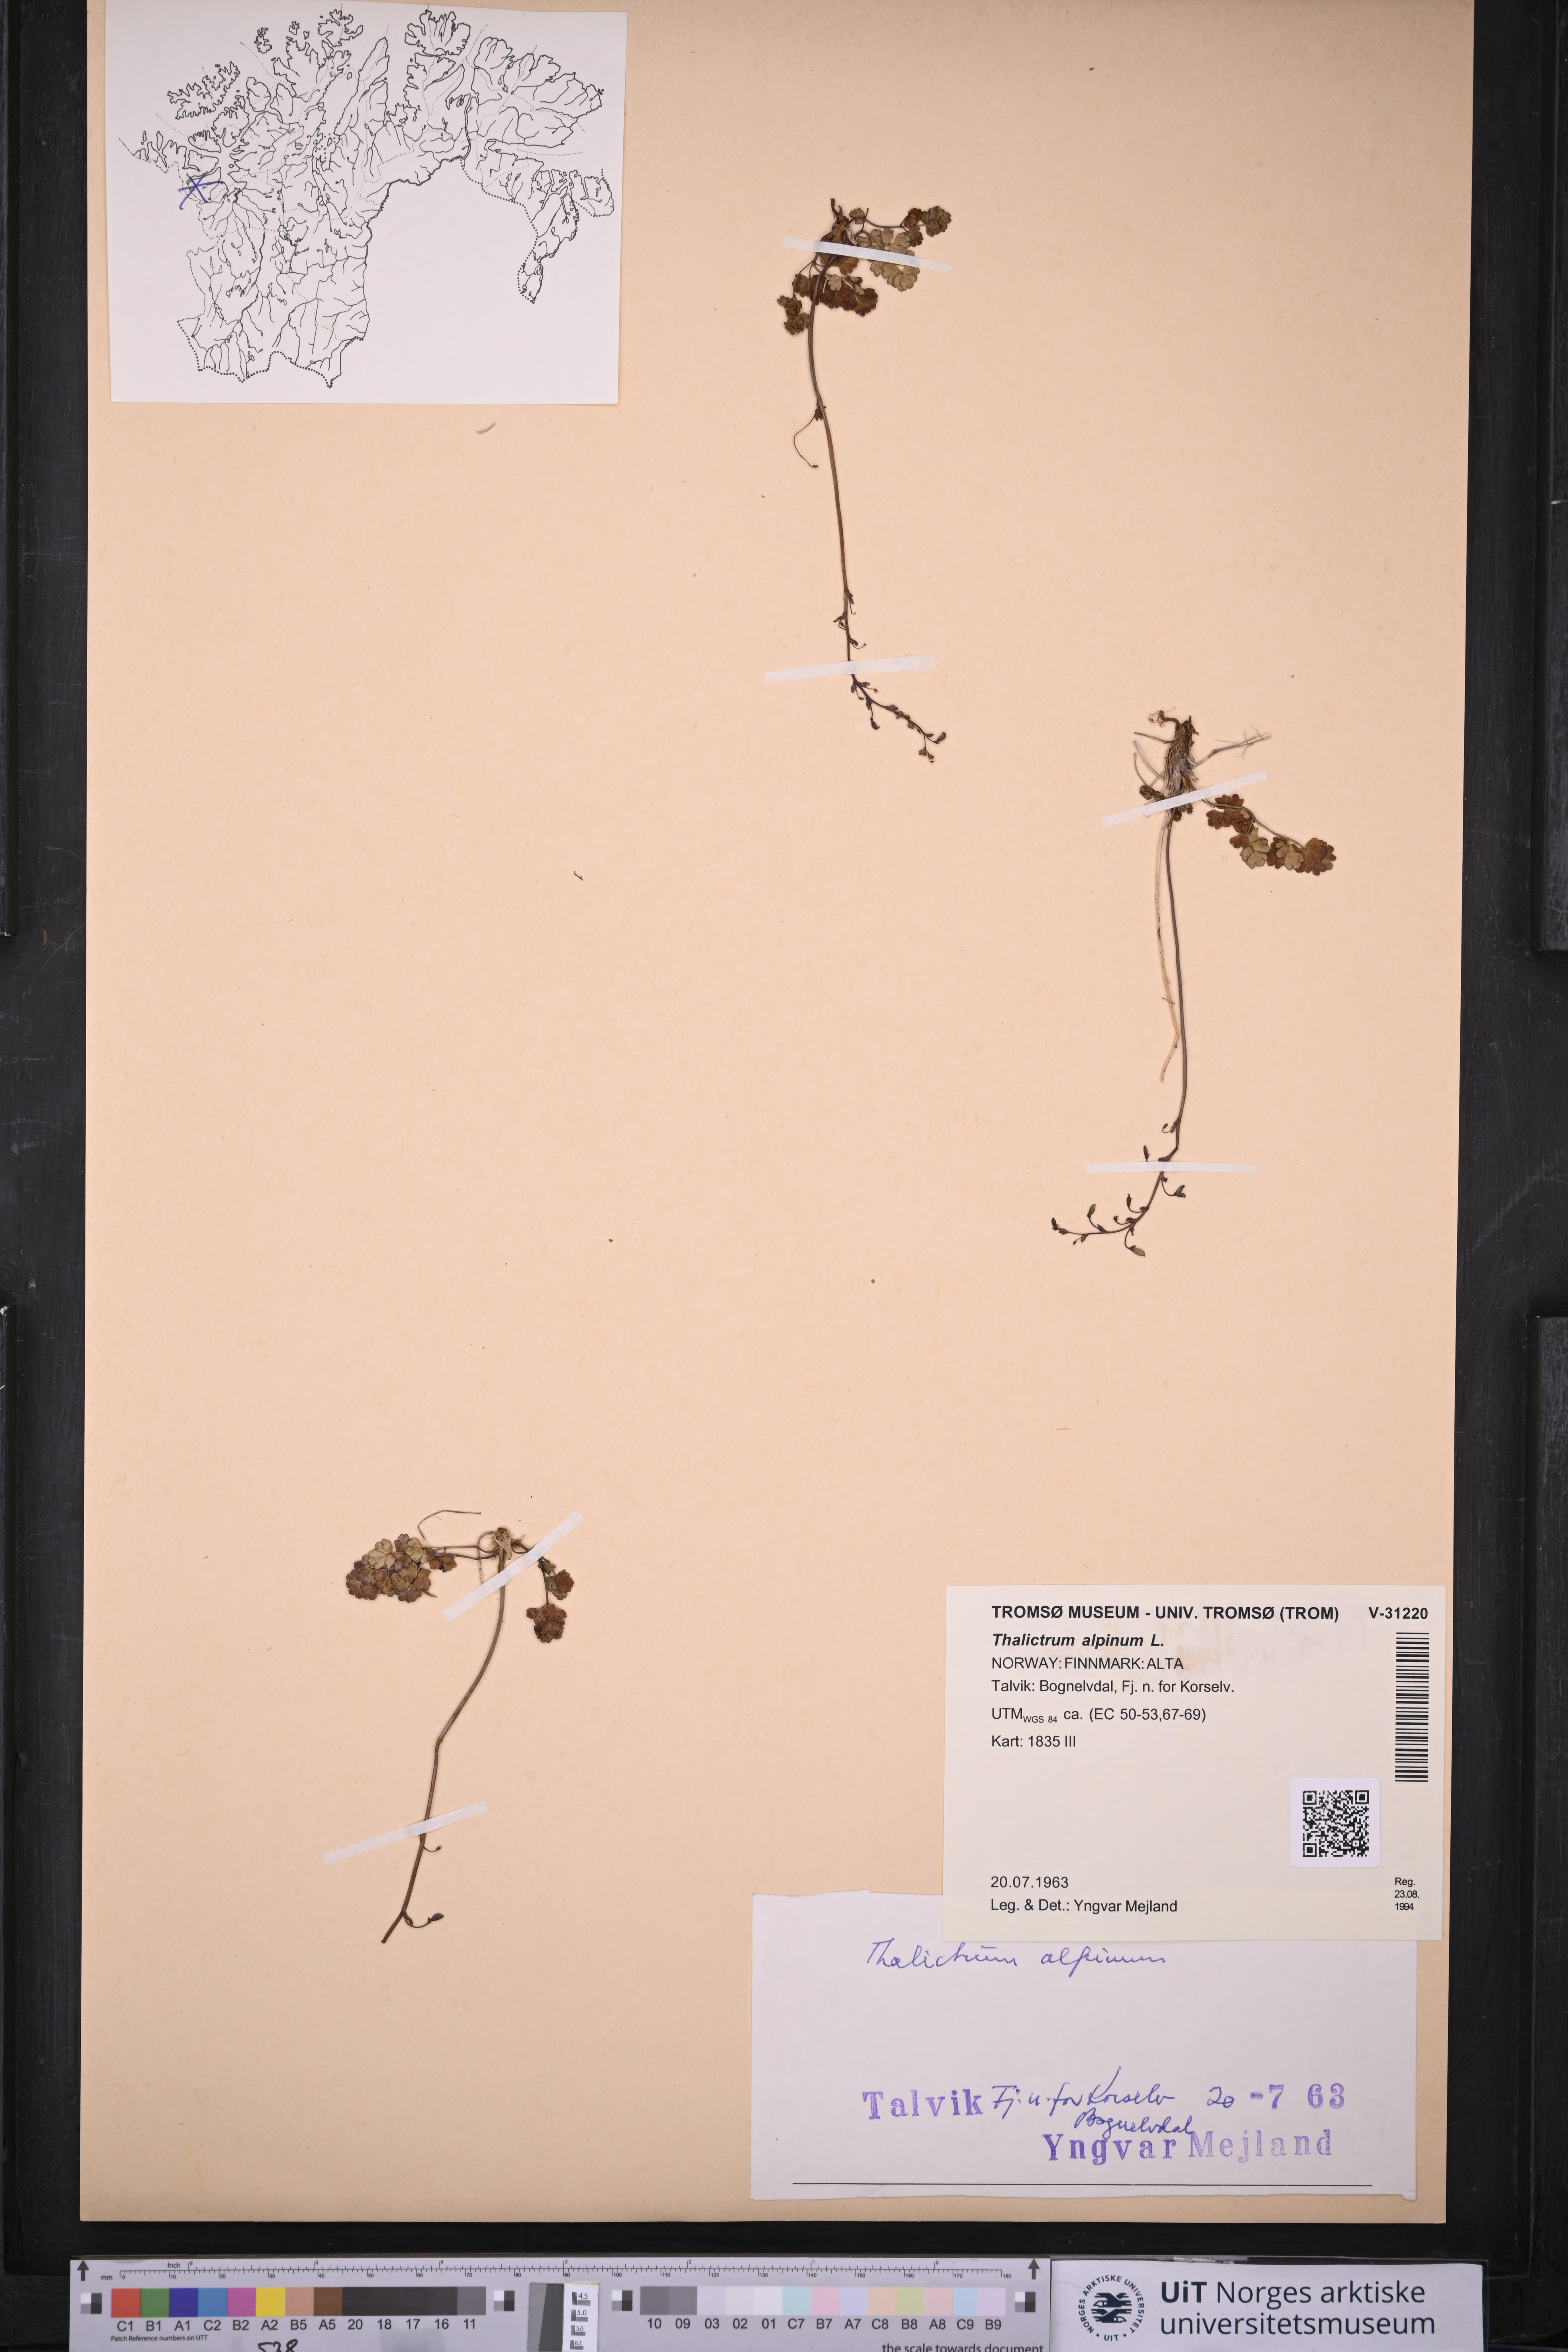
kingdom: Plantae
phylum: Tracheophyta
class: Magnoliopsida
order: Ranunculales
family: Ranunculaceae
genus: Thalictrum
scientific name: Thalictrum alpinum
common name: Alpine meadow-rue
